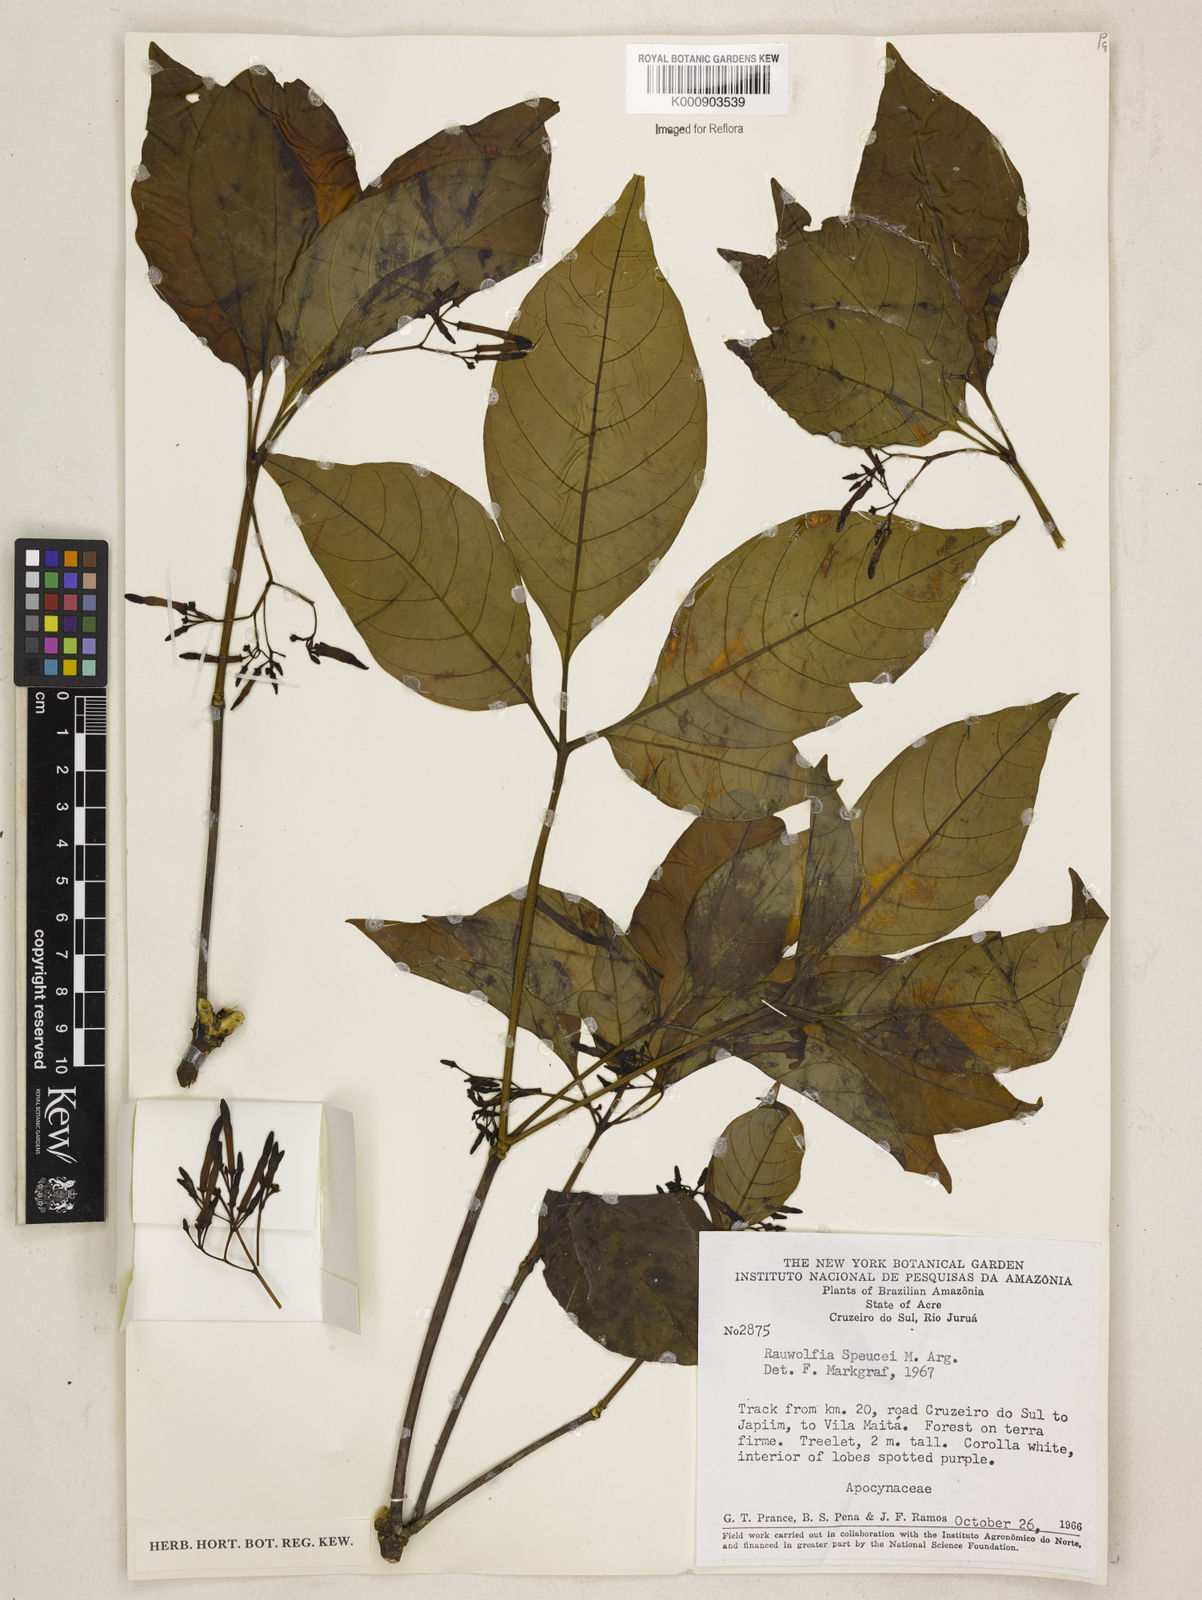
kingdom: Plantae
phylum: Tracheophyta
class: Magnoliopsida
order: Gentianales
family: Apocynaceae
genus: Rauvolfia
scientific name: Rauvolfia
